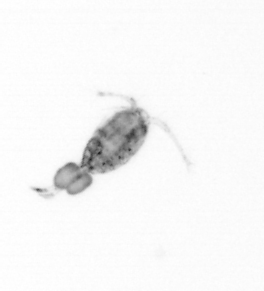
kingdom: Animalia
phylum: Arthropoda
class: Copepoda
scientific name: Copepoda
